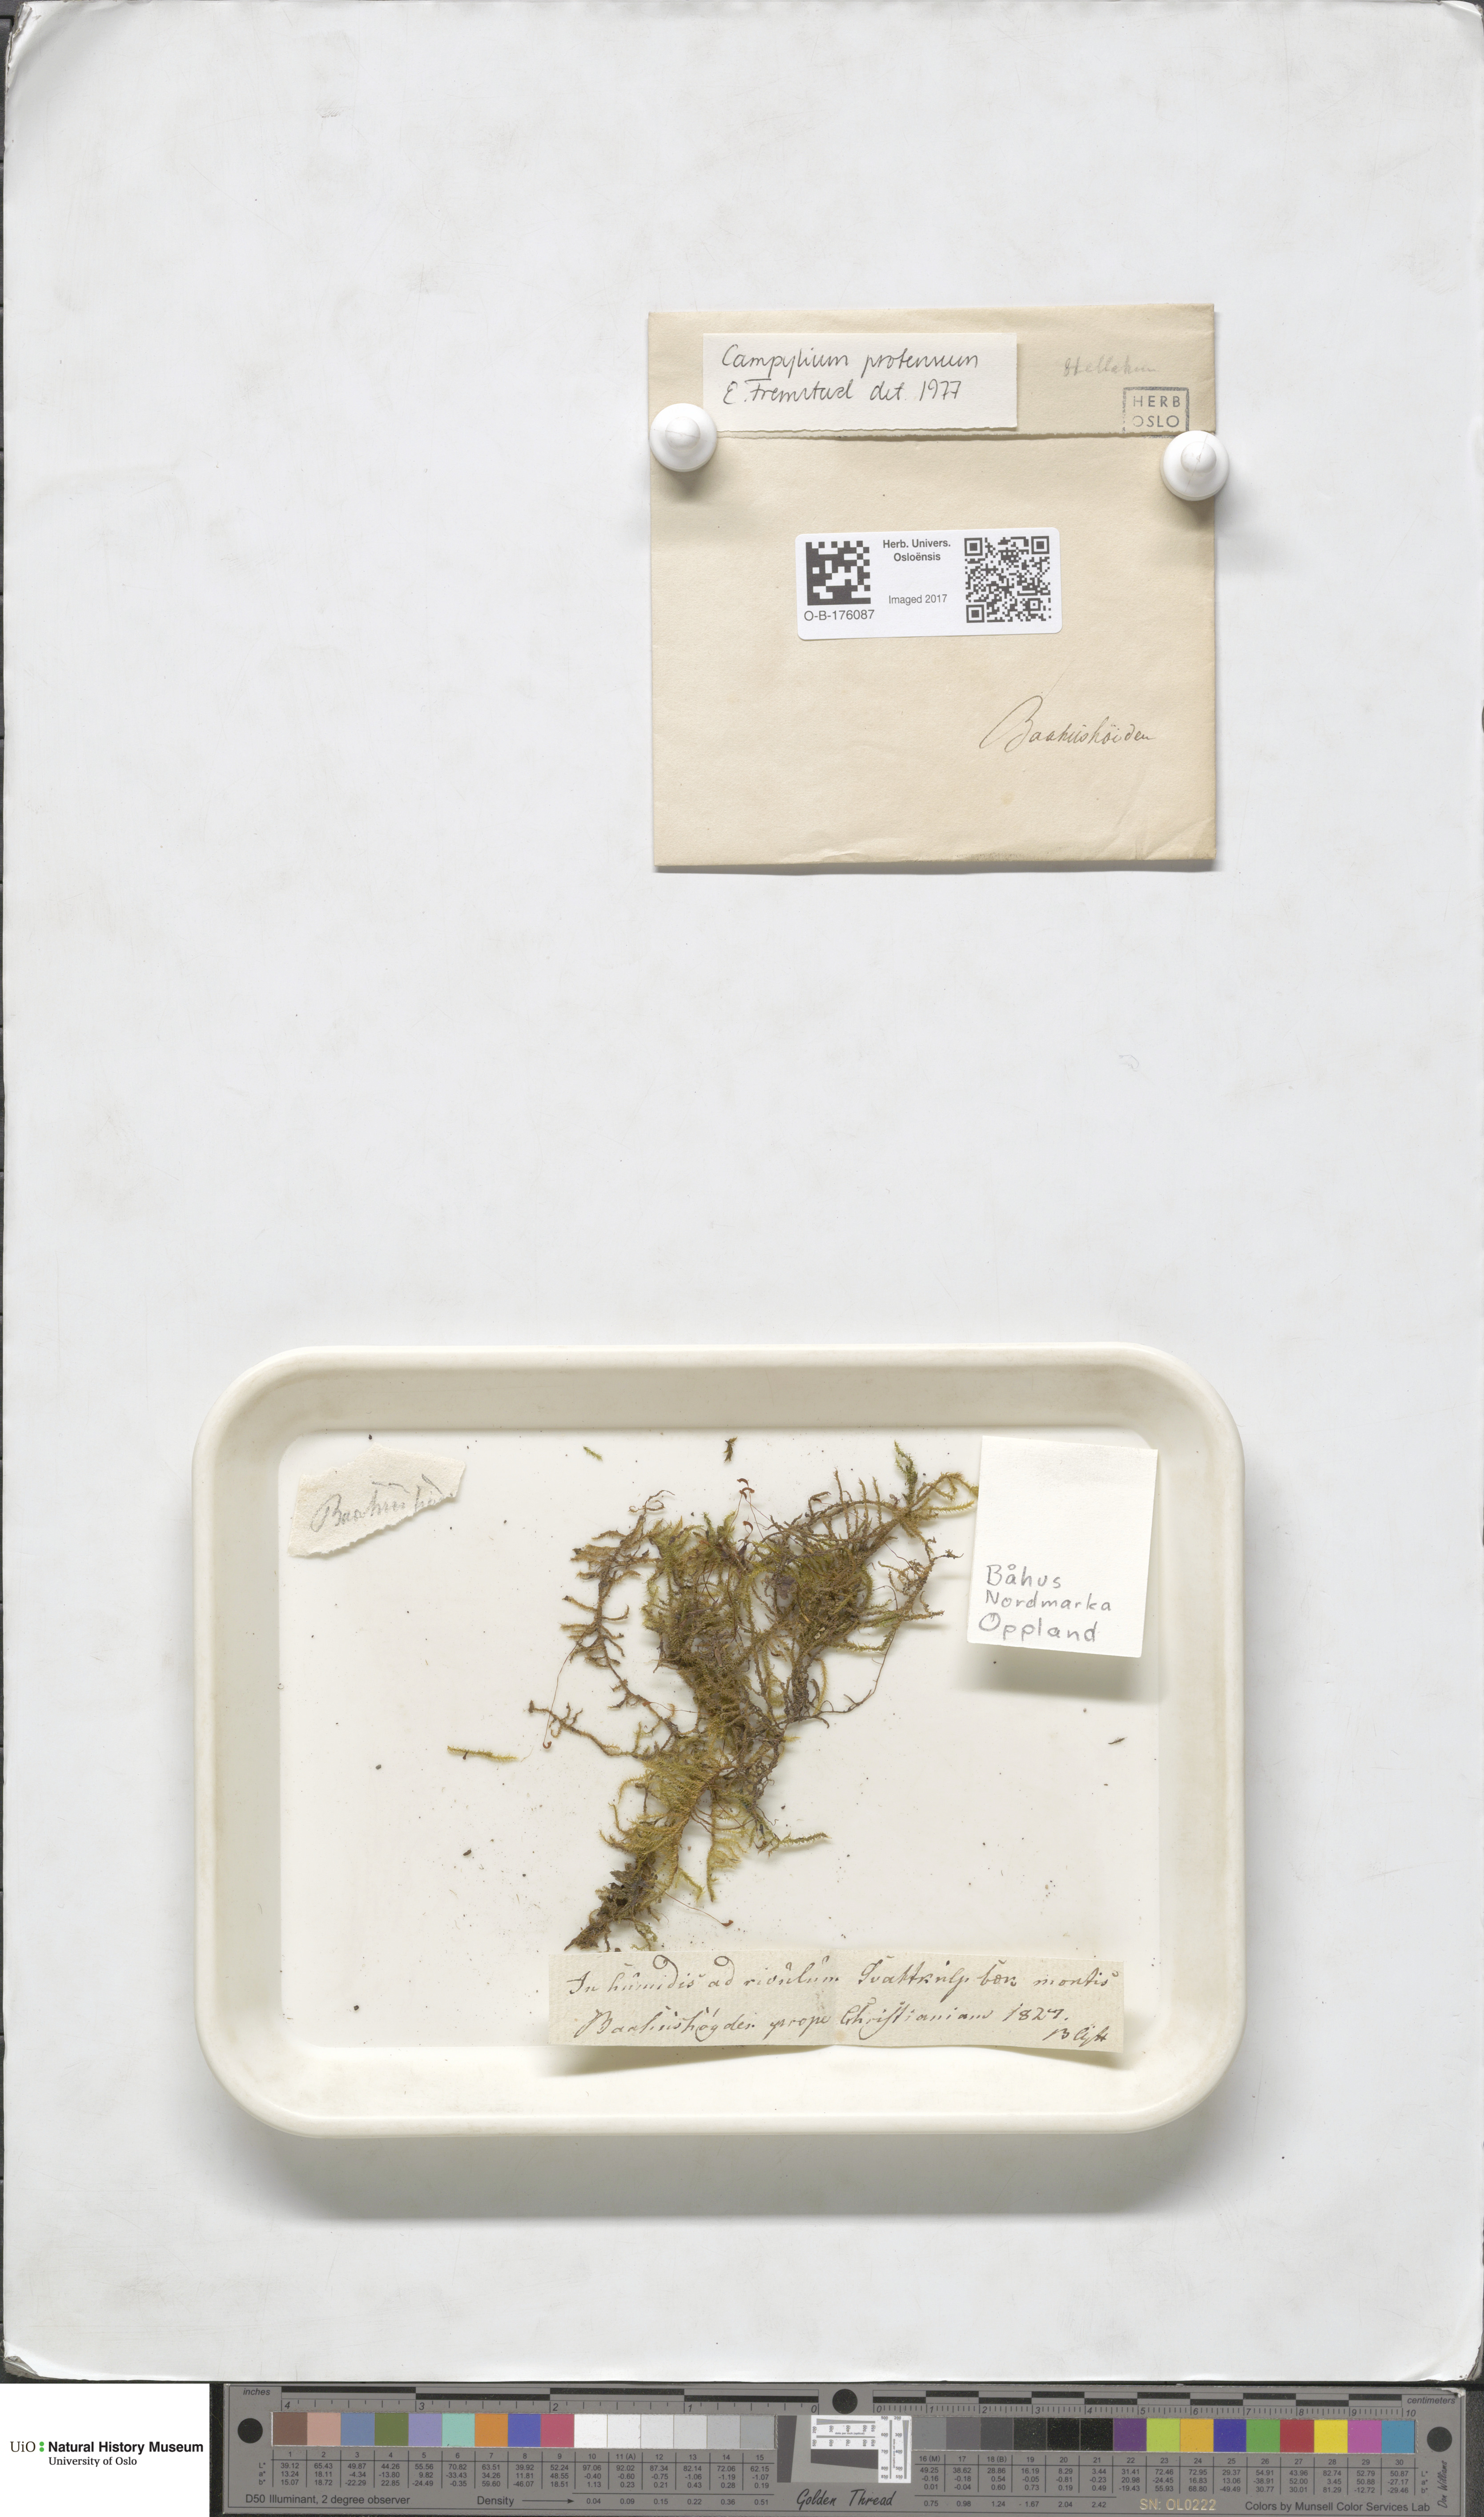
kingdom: Plantae
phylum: Bryophyta
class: Bryopsida
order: Hypnales
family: Amblystegiaceae
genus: Campylium
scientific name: Campylium stellatum
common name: Yellow starry fen moss
